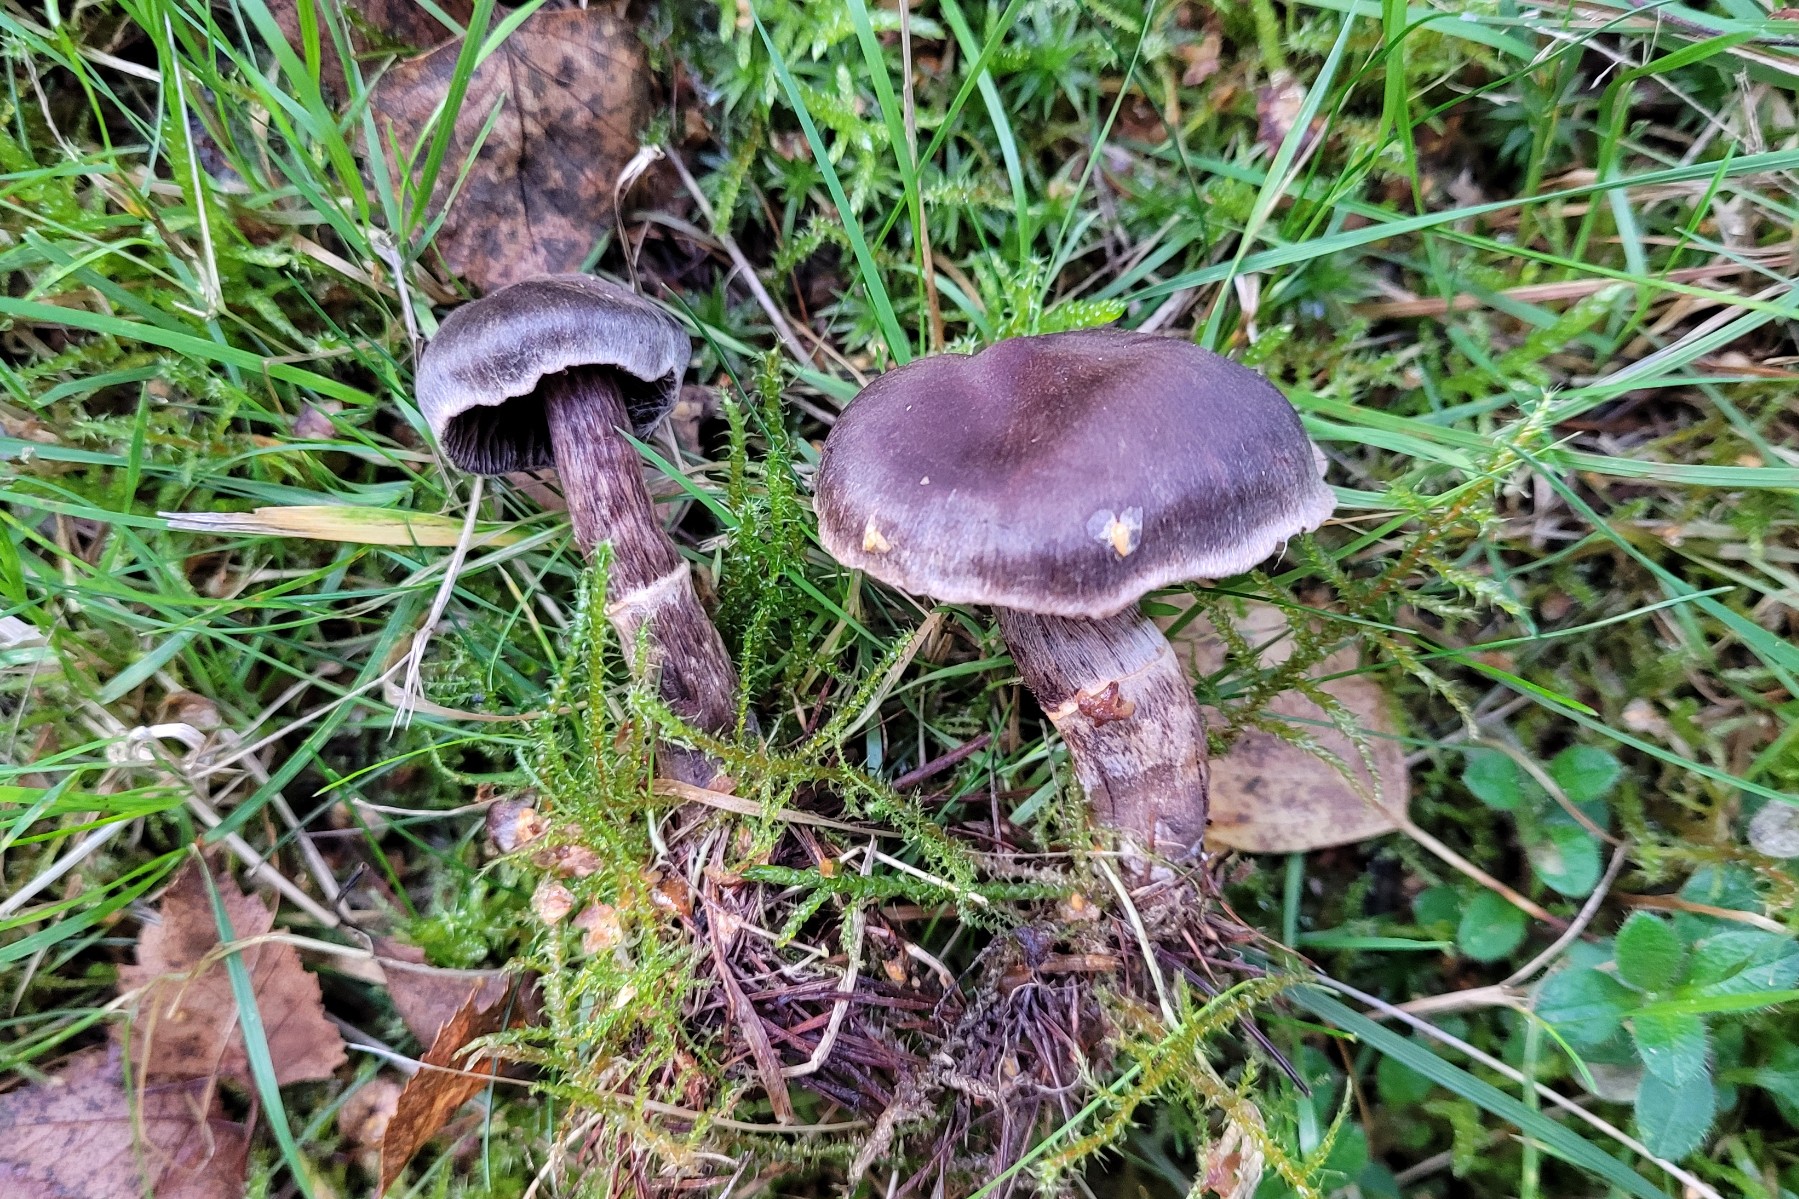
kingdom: Fungi
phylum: Basidiomycota
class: Agaricomycetes
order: Agaricales
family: Cortinariaceae
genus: Cortinarius
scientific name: Cortinarius umbrinolens
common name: mørk slørhat
